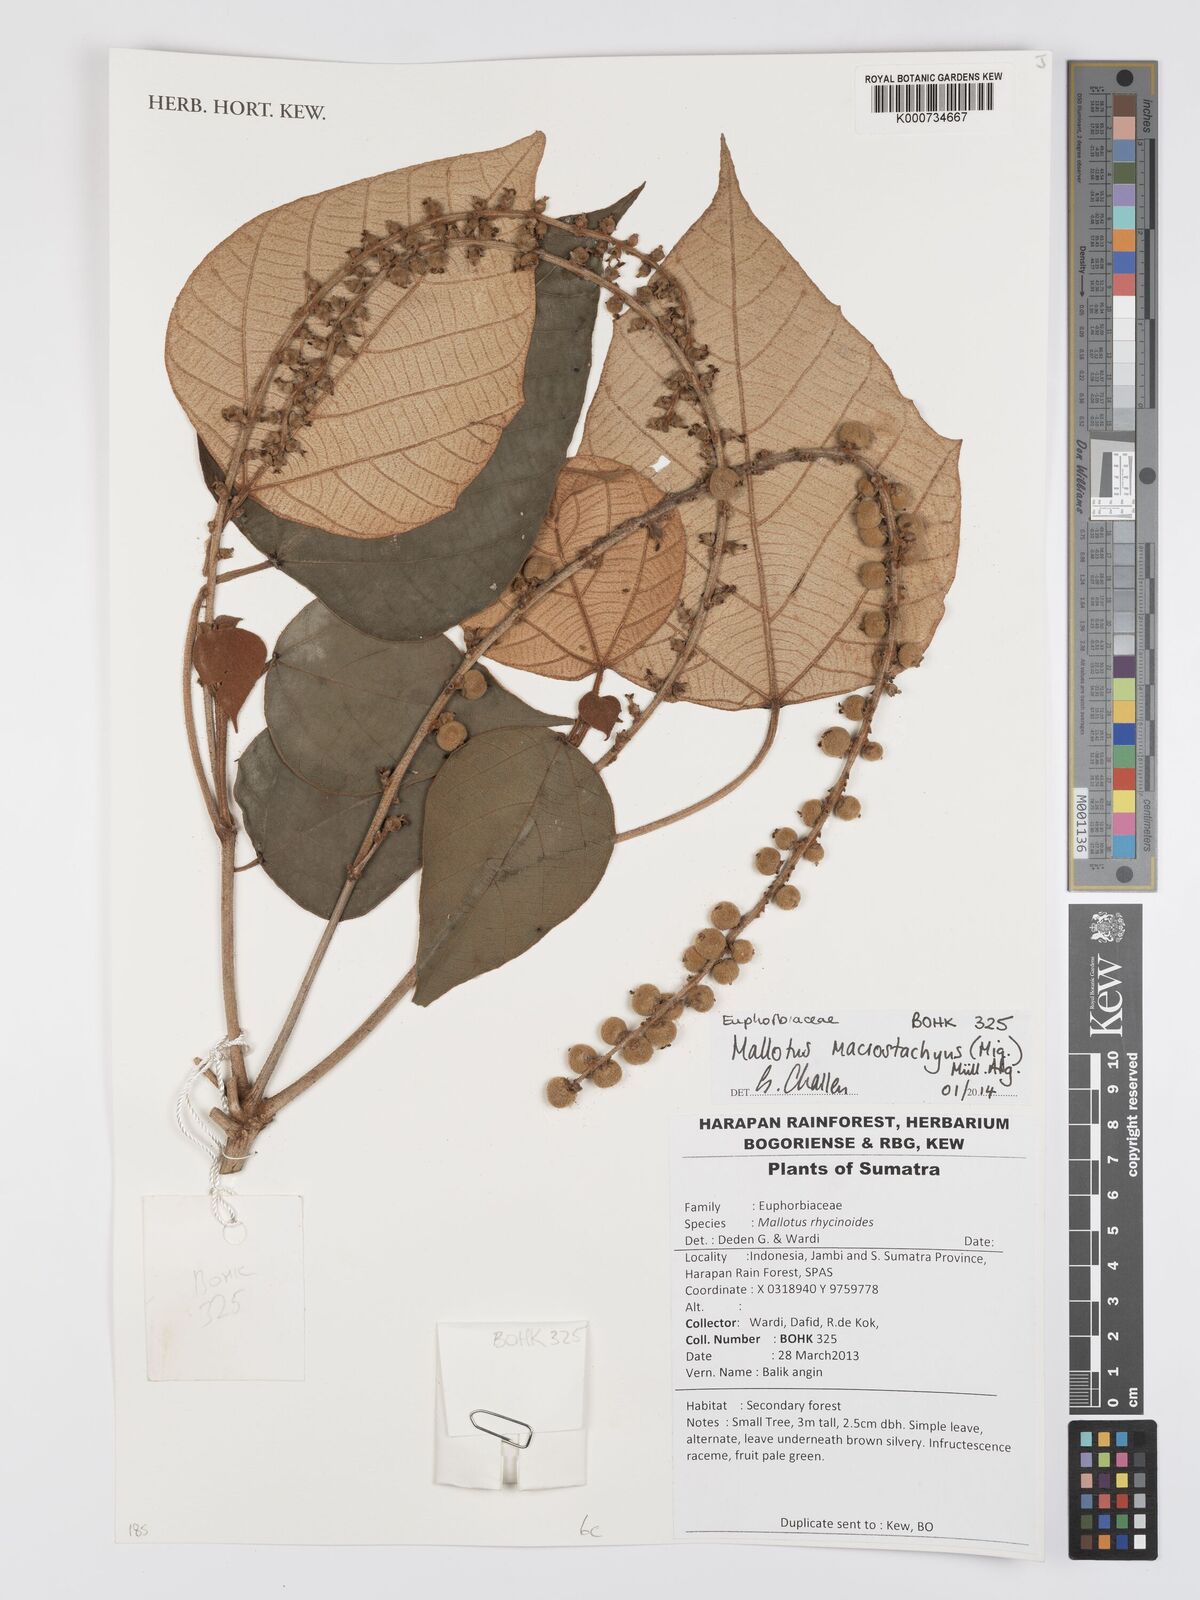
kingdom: Plantae
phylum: Tracheophyta
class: Magnoliopsida
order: Malpighiales
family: Euphorbiaceae
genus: Mallotus
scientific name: Mallotus
